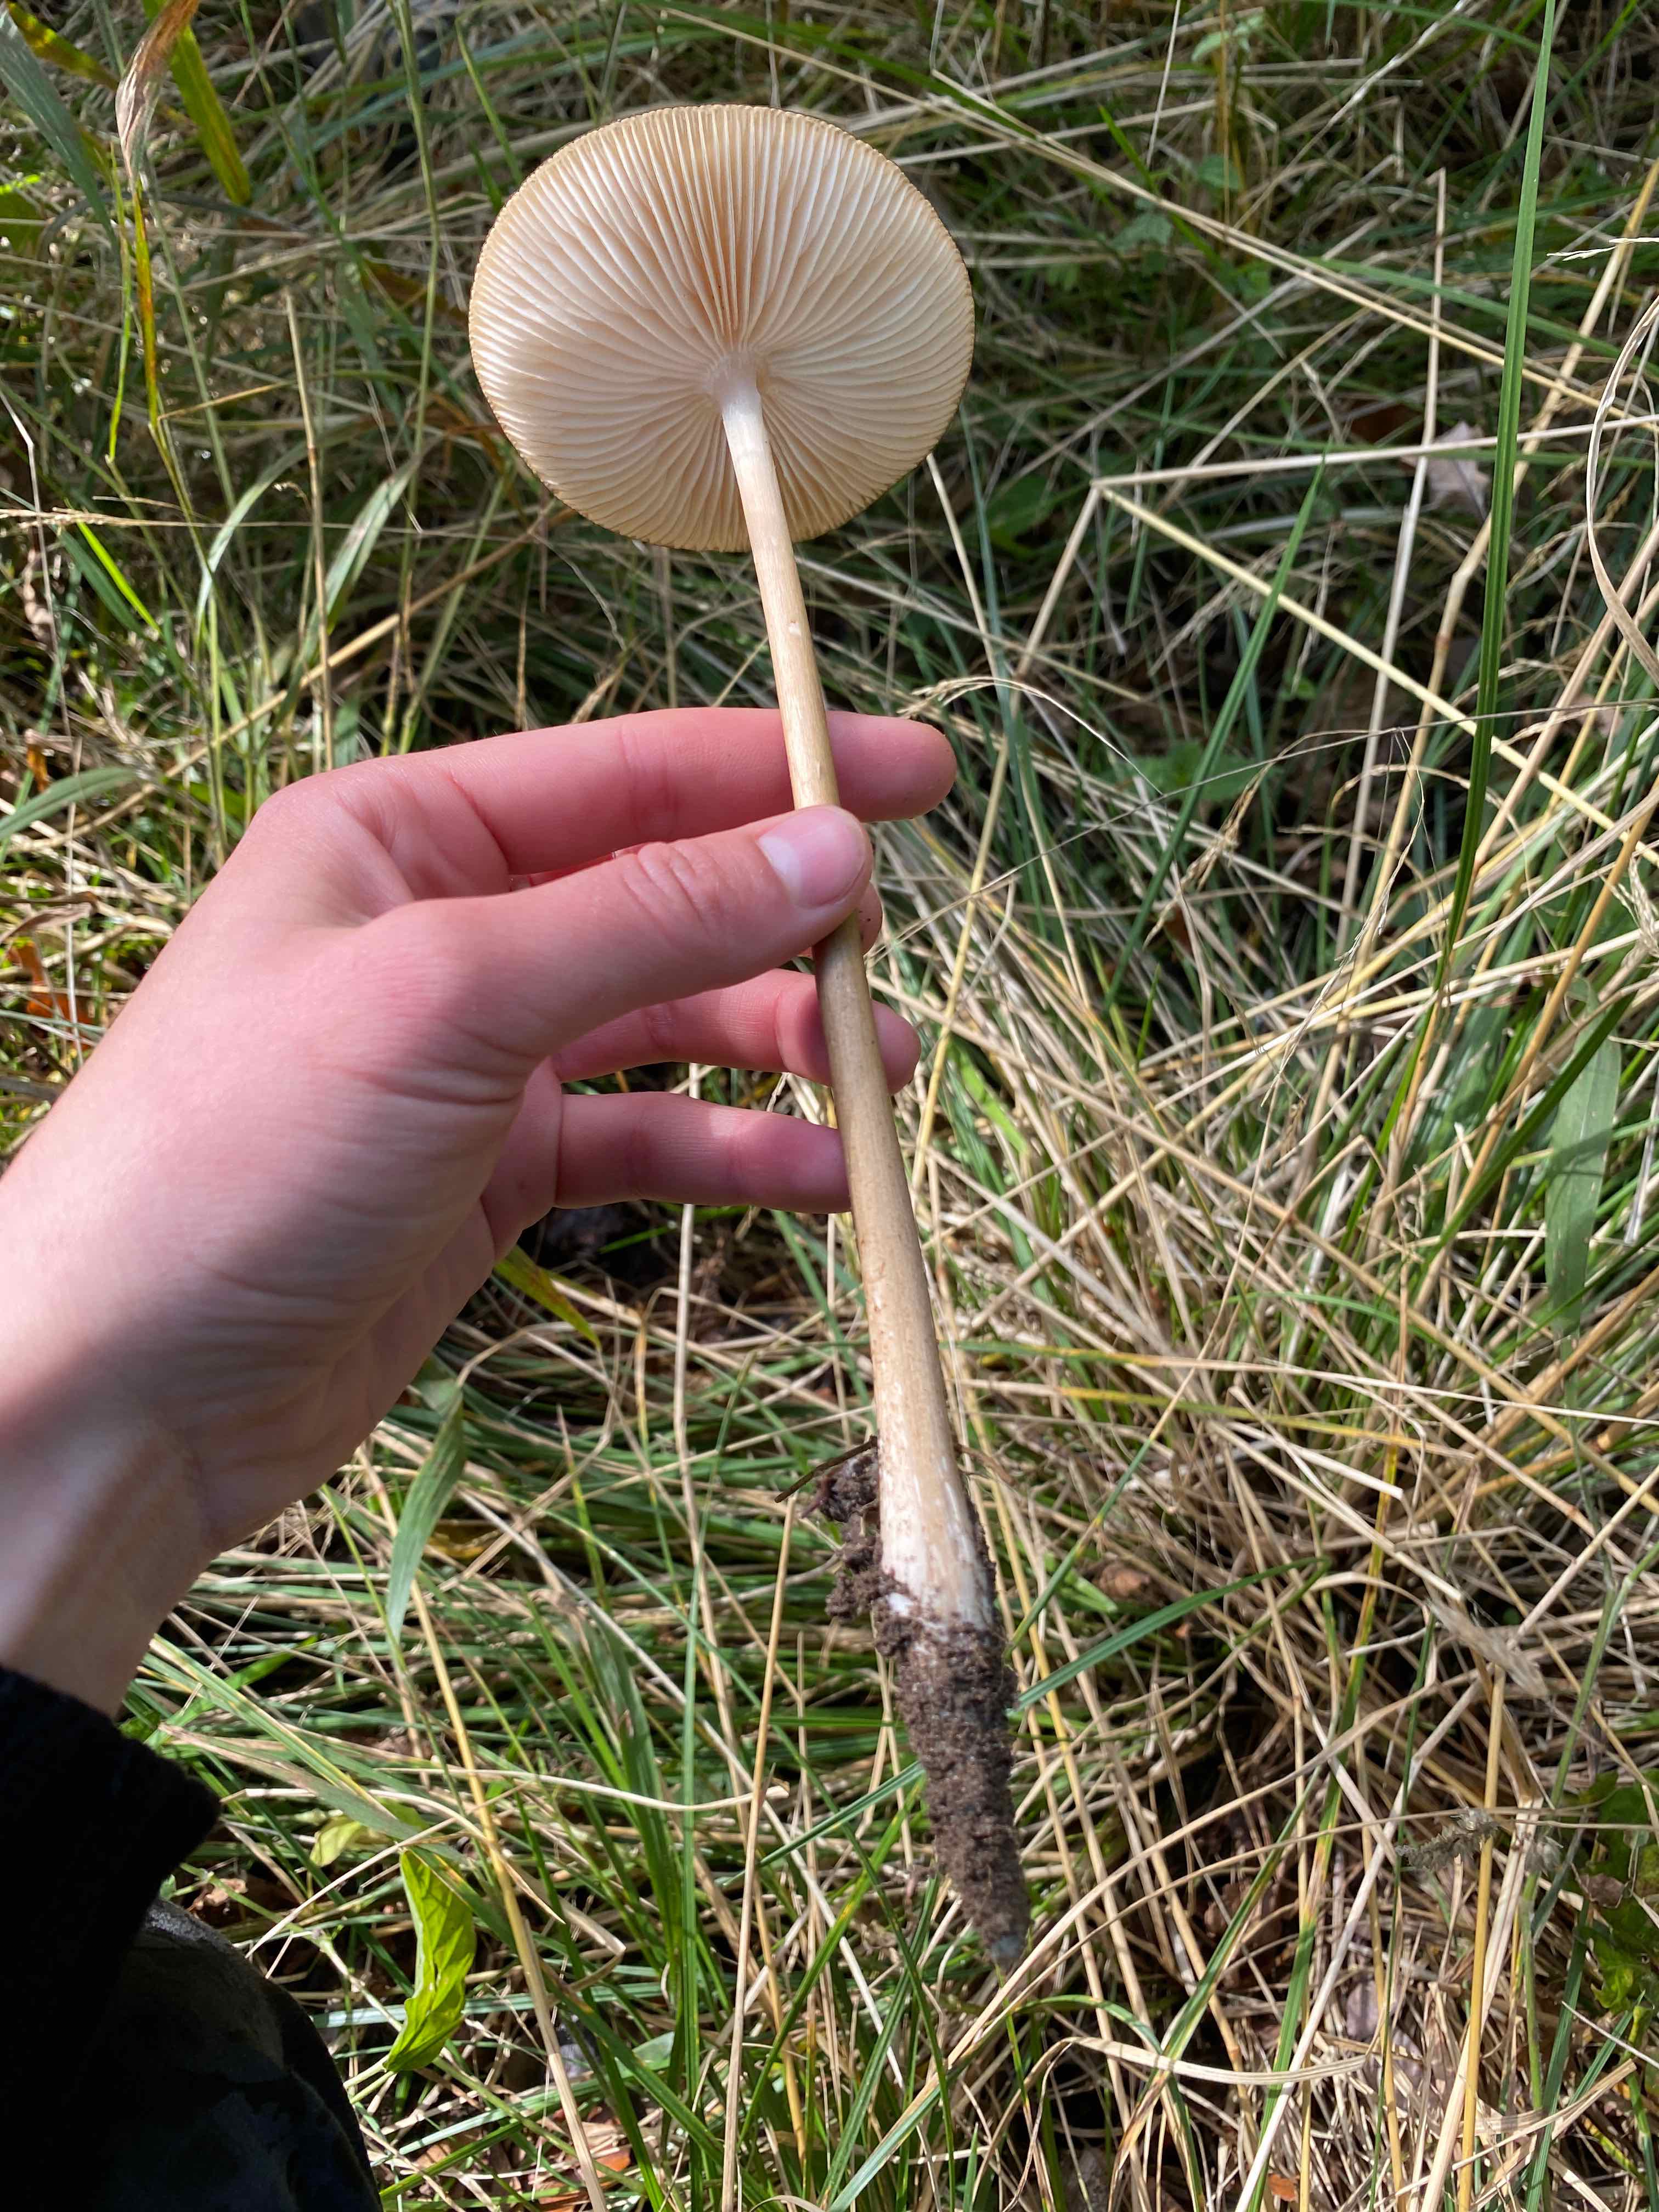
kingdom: Fungi
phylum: Basidiomycota
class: Agaricomycetes
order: Agaricales
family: Physalacriaceae
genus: Hymenopellis
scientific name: Hymenopellis radicata
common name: almindelig pælerodshat
